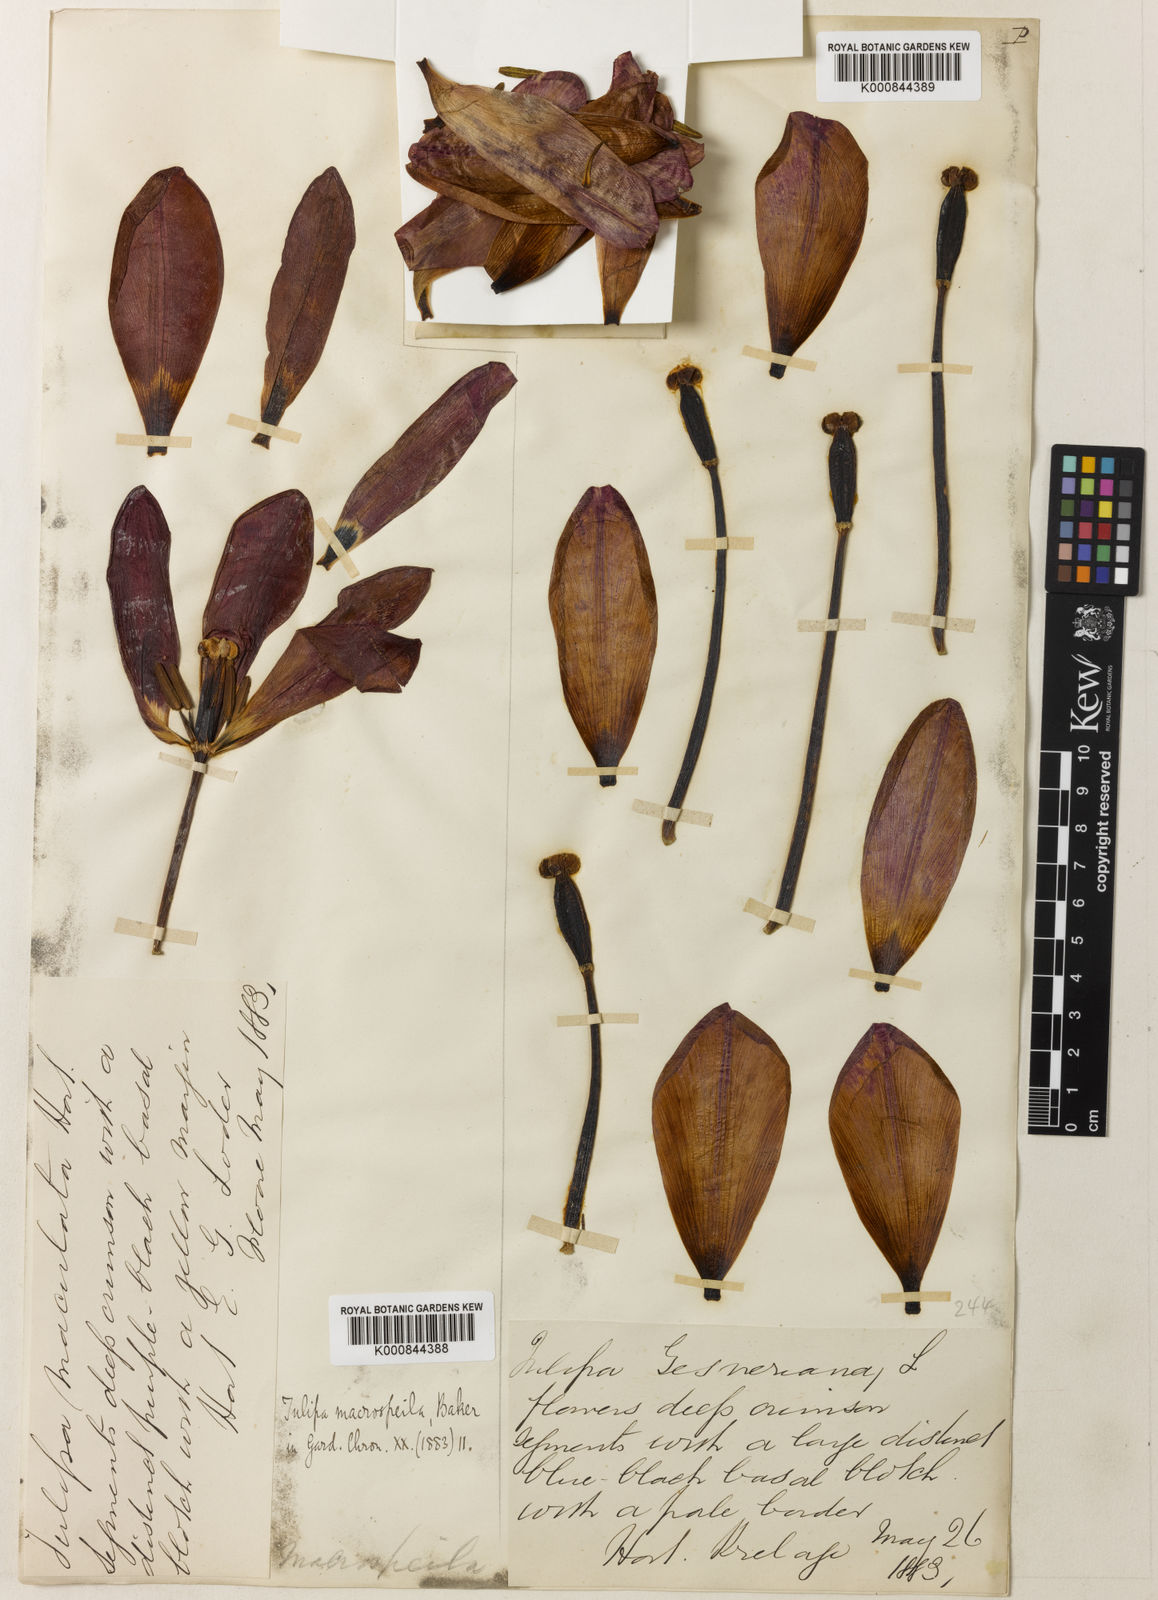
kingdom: Plantae
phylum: Tracheophyta
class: Liliopsida
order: Liliales
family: Liliaceae
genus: Tulipa
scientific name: Tulipa gesneriana
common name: Garden tulip
